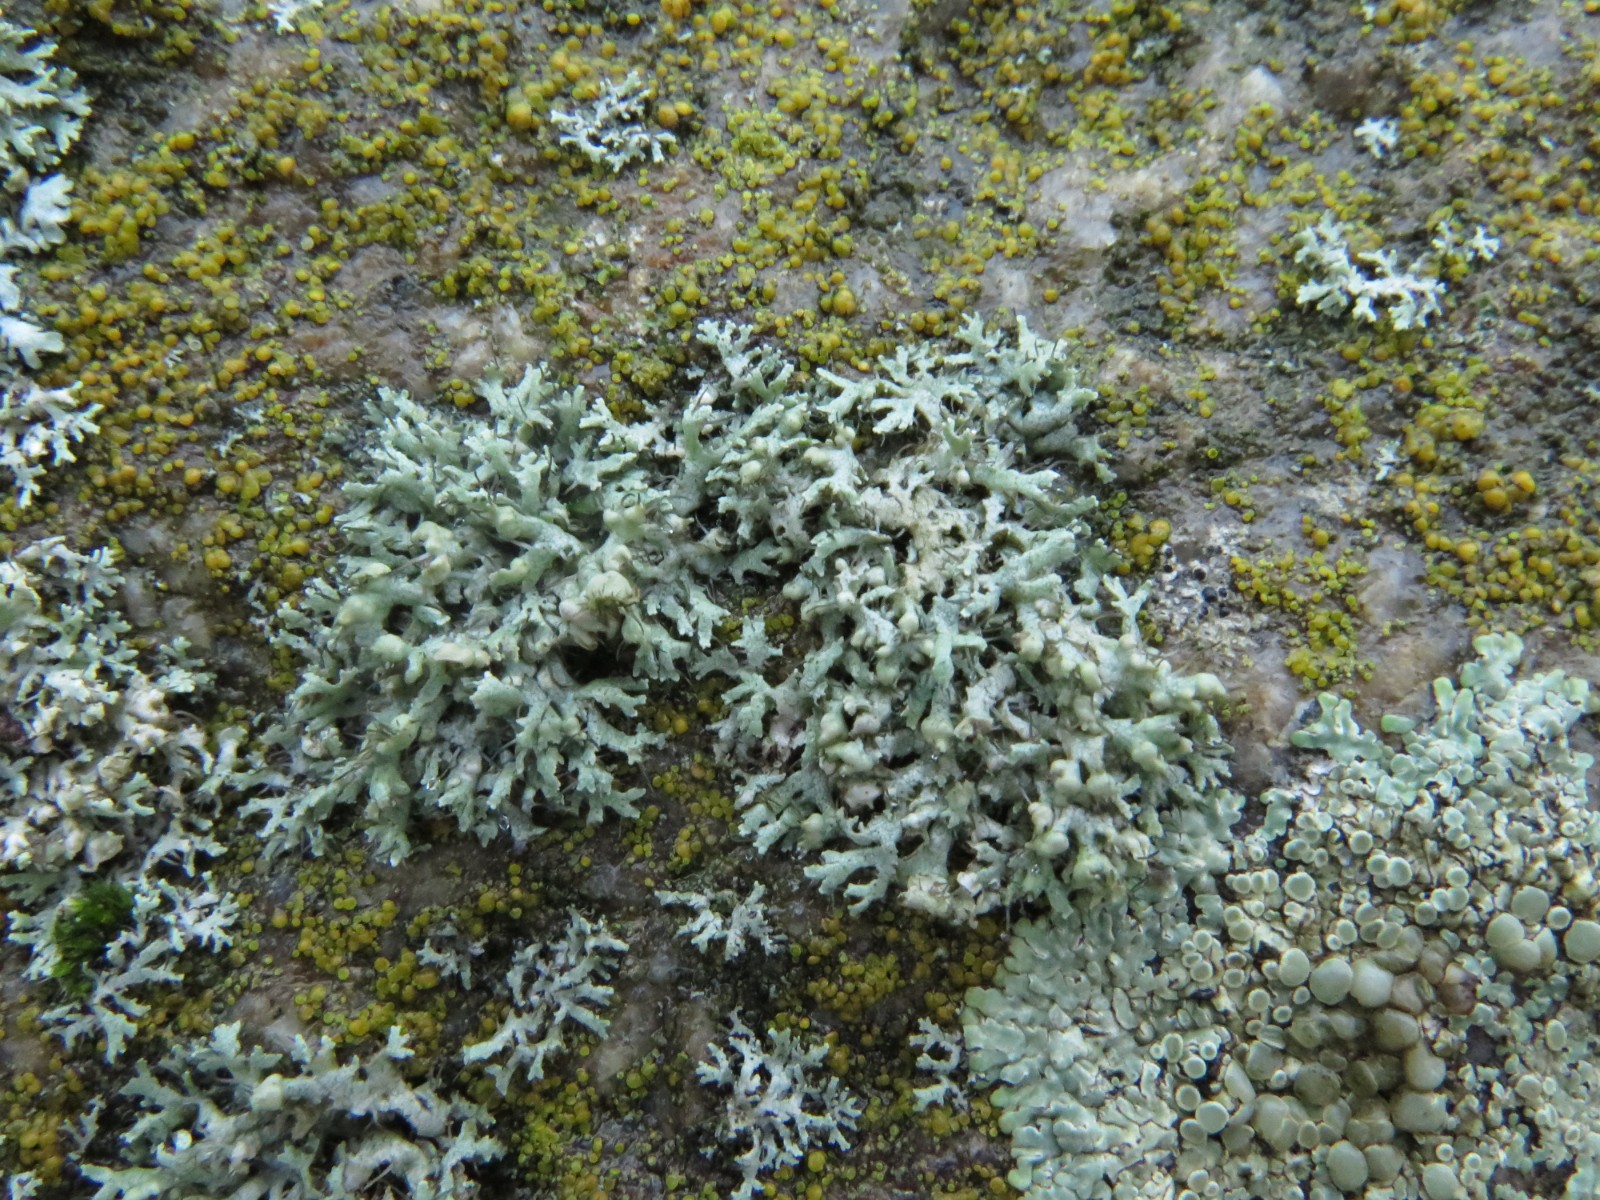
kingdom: Fungi
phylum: Ascomycota
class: Lecanoromycetes
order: Caliciales
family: Physciaceae
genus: Physcia
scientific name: Physcia adscendens
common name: hætte-rosetlav
